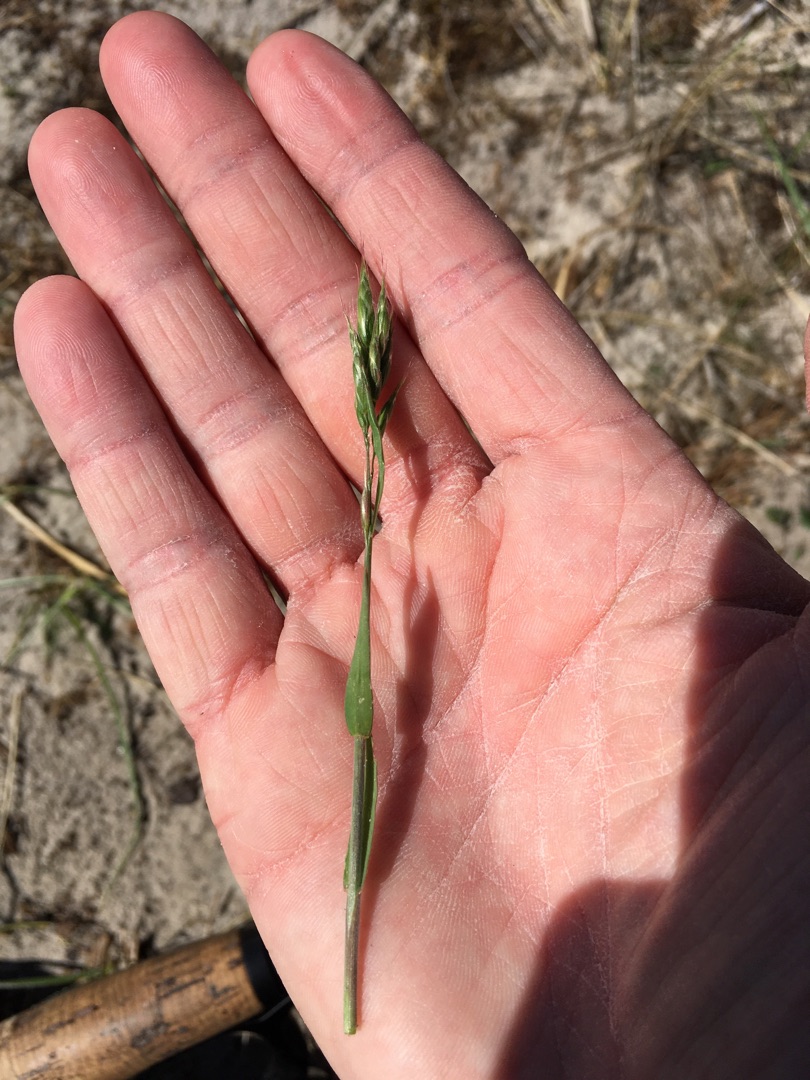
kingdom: Plantae
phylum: Tracheophyta
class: Liliopsida
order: Poales
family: Poaceae
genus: Bromus
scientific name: Bromus hordeaceus
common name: Blød hejre
